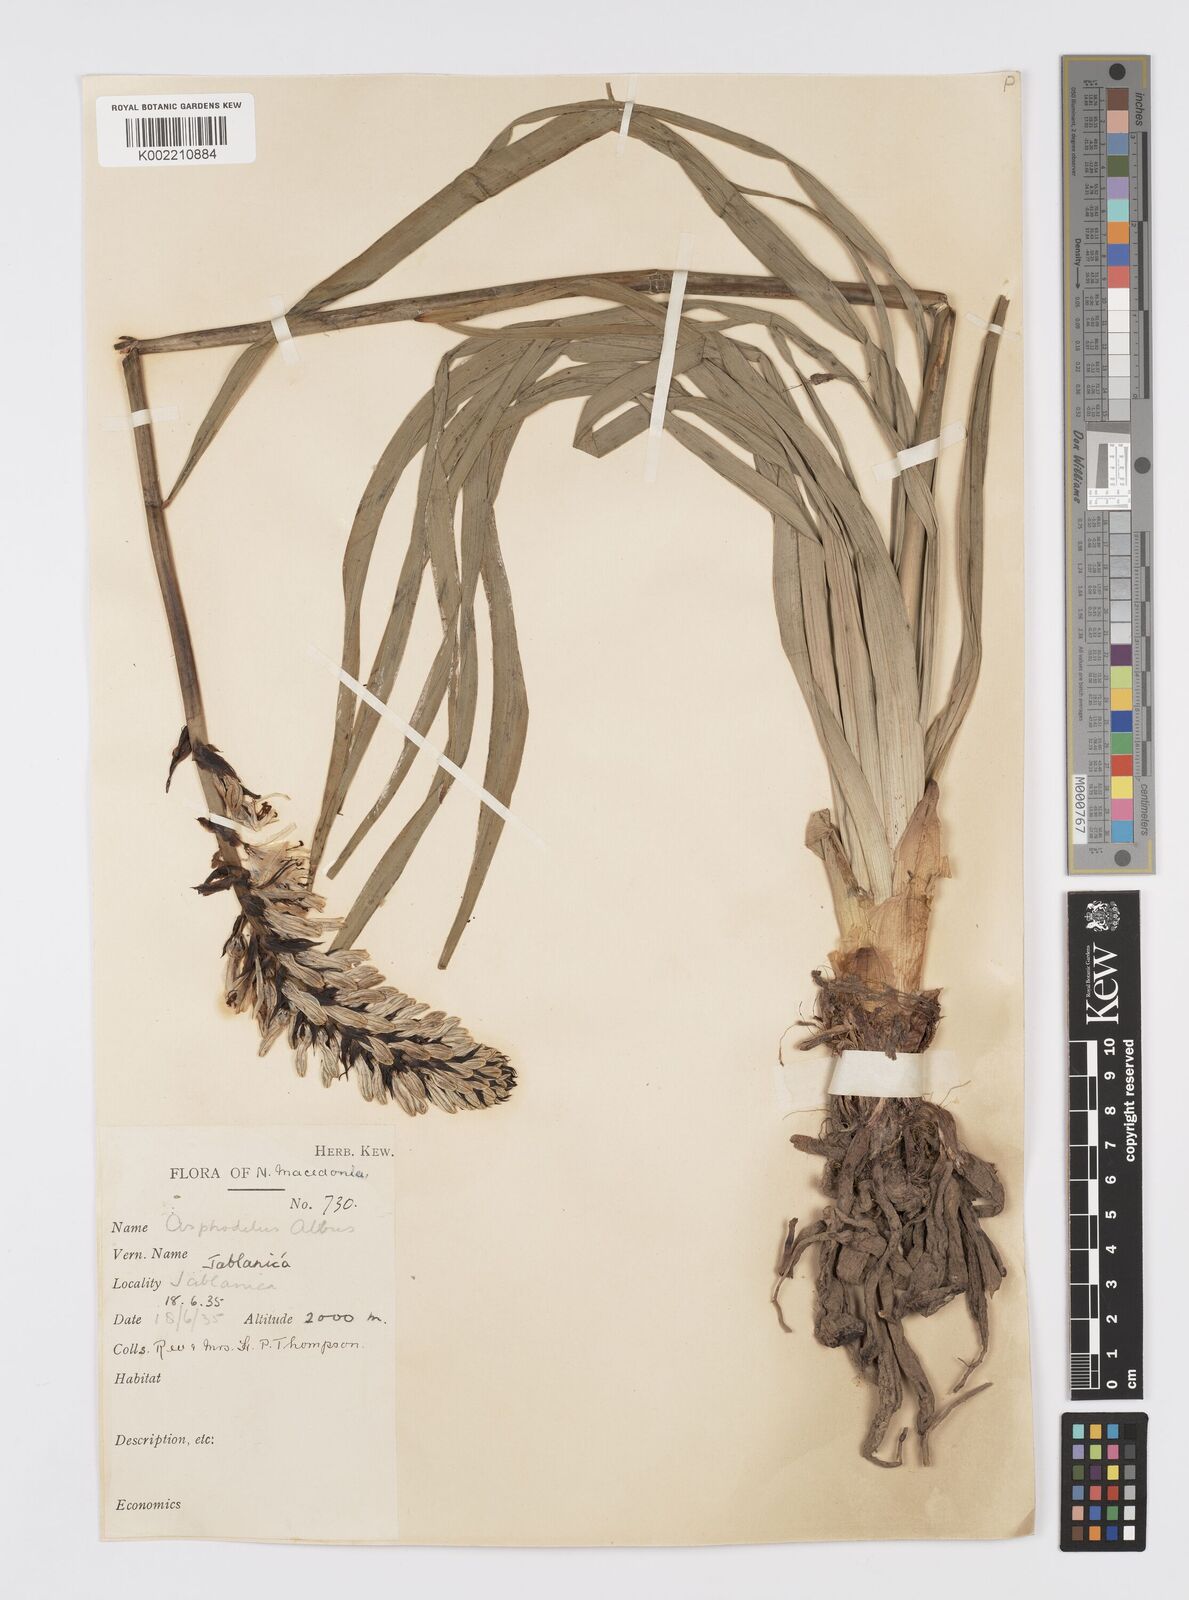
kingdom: Plantae
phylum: Tracheophyta
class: Liliopsida
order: Asparagales
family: Asphodelaceae
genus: Asphodelus
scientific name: Asphodelus albus
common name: White asphodel
